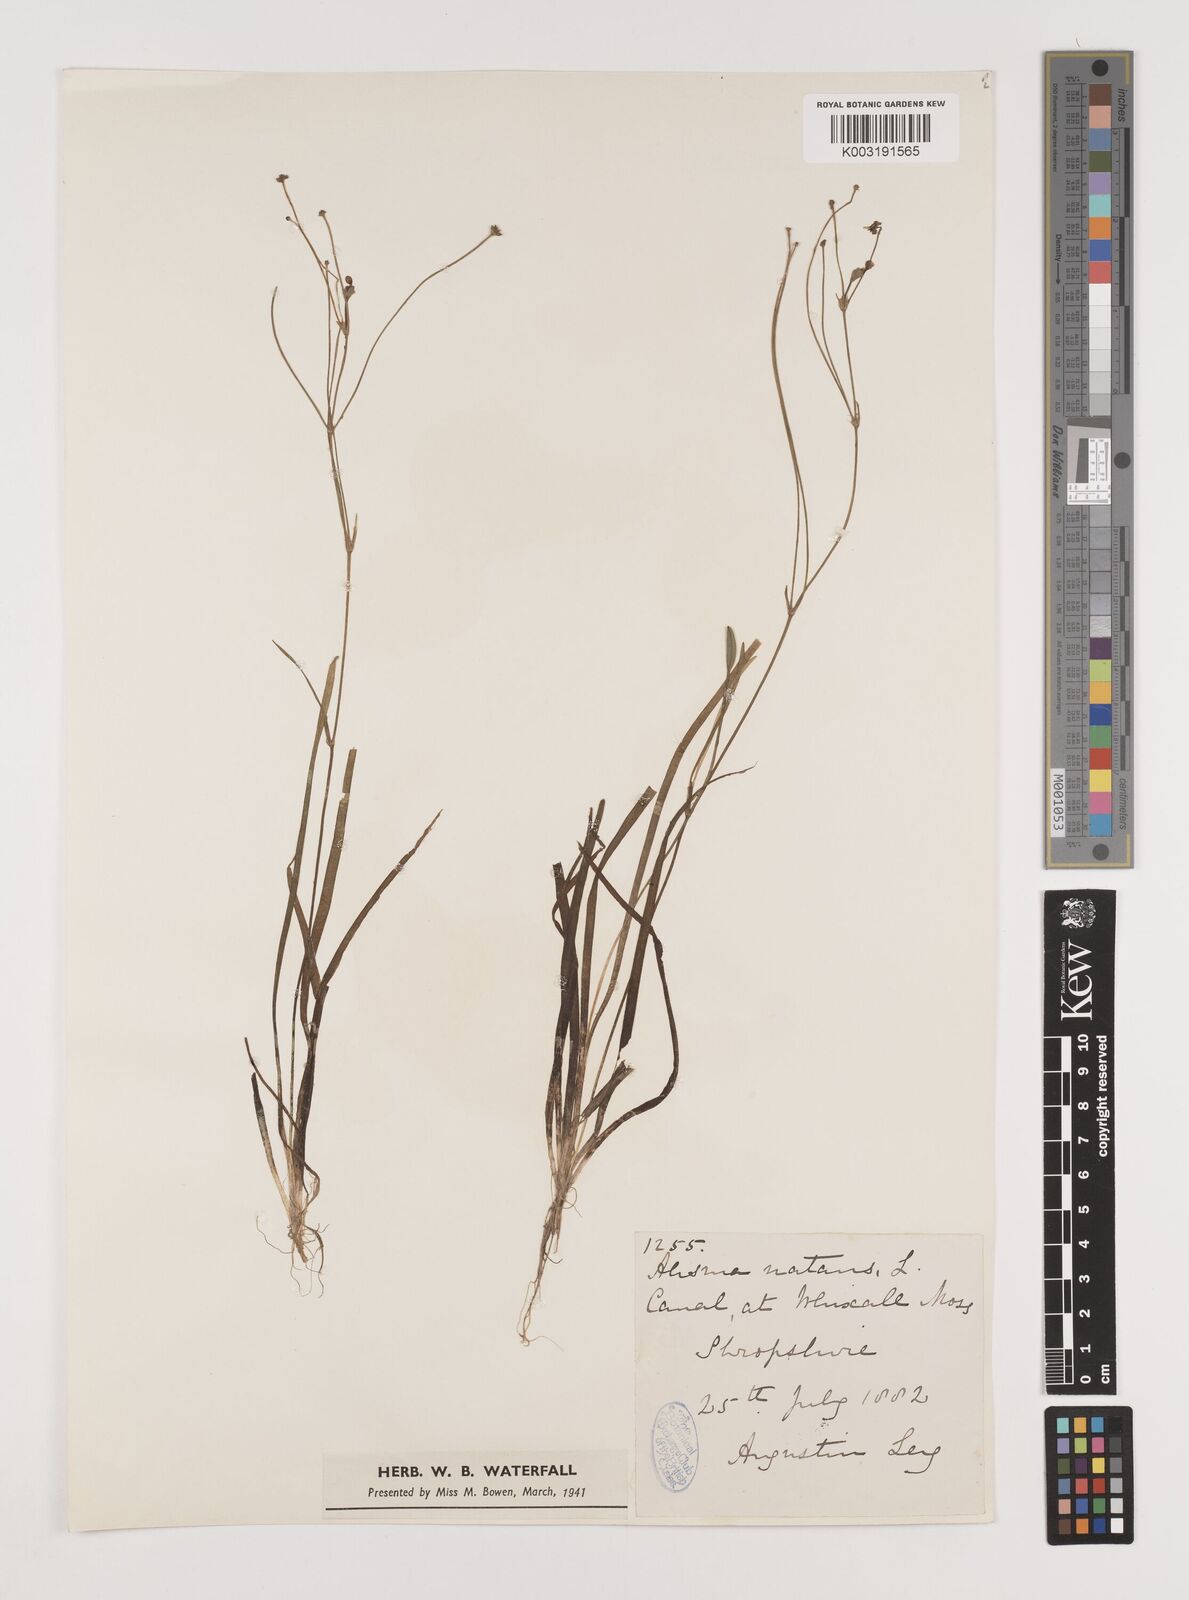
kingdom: Plantae
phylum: Tracheophyta
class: Liliopsida
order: Alismatales
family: Alismataceae
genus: Luronium
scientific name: Luronium natans
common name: Floating water-plantain
